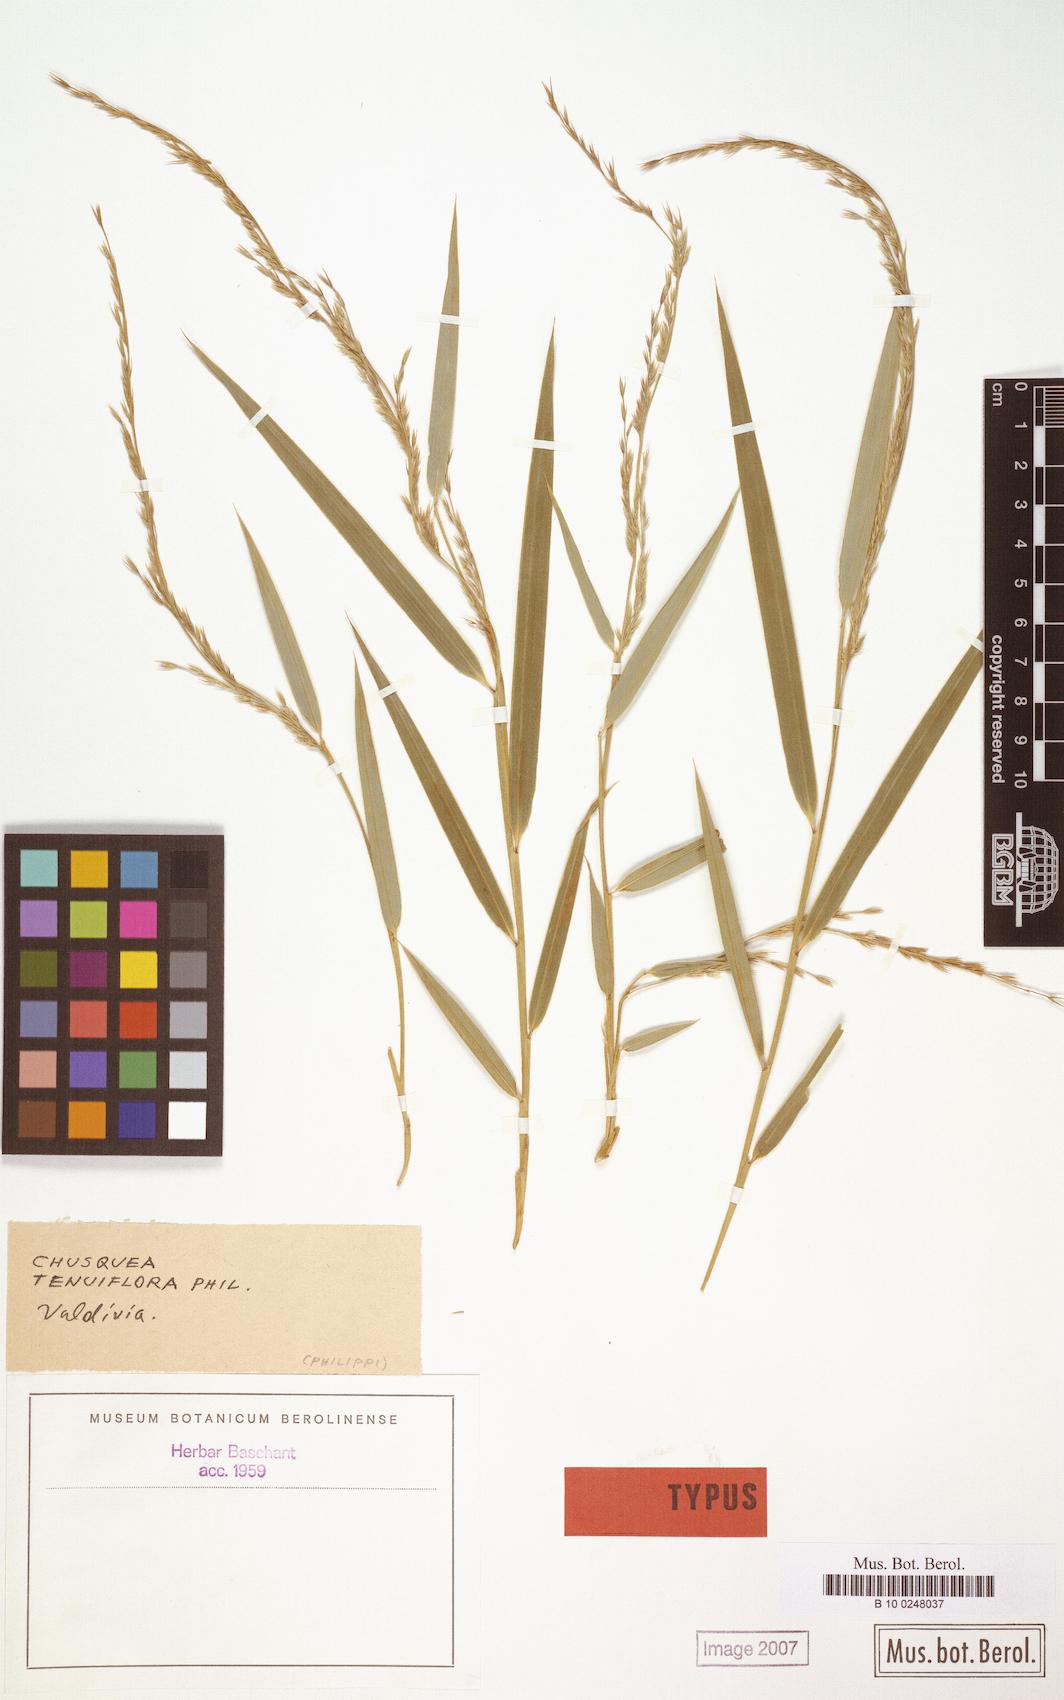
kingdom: Plantae
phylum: Tracheophyta
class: Liliopsida
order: Poales
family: Poaceae
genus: Chusquea
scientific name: Chusquea uliginosa
